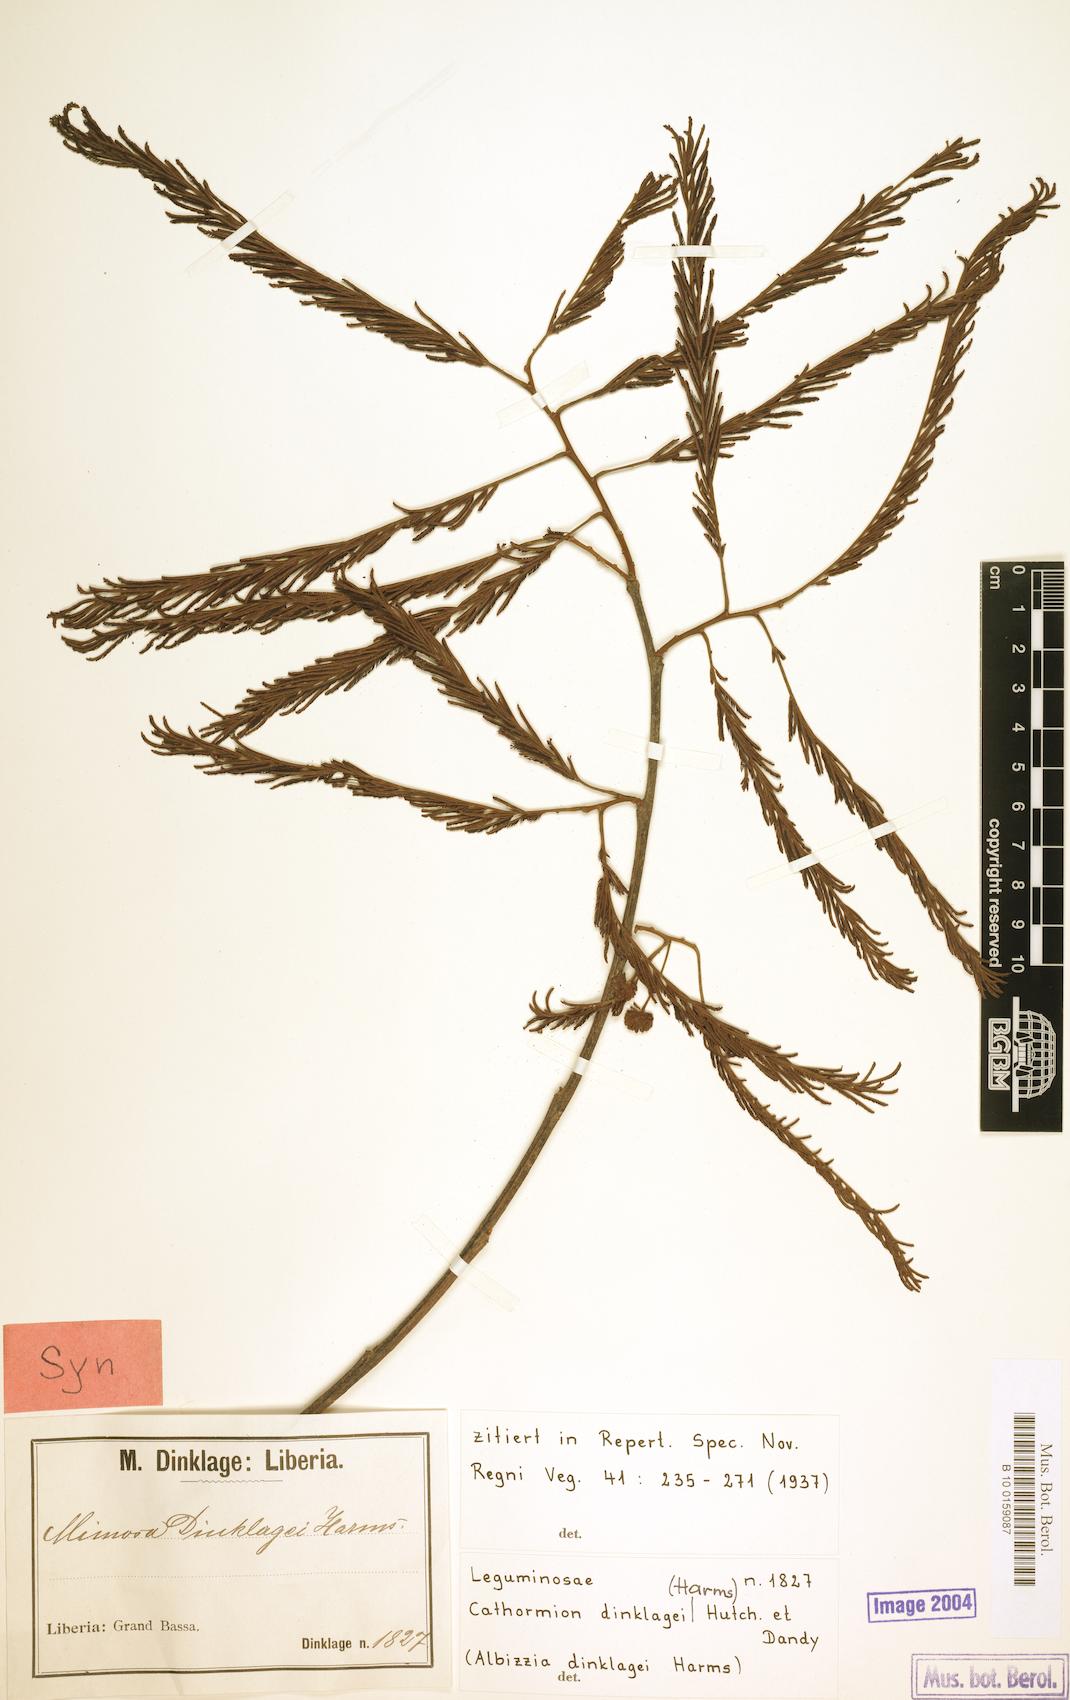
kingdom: Plantae
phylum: Tracheophyta
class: Magnoliopsida
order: Fabales
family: Fabaceae
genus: Albizia
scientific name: Albizia dinklagei
